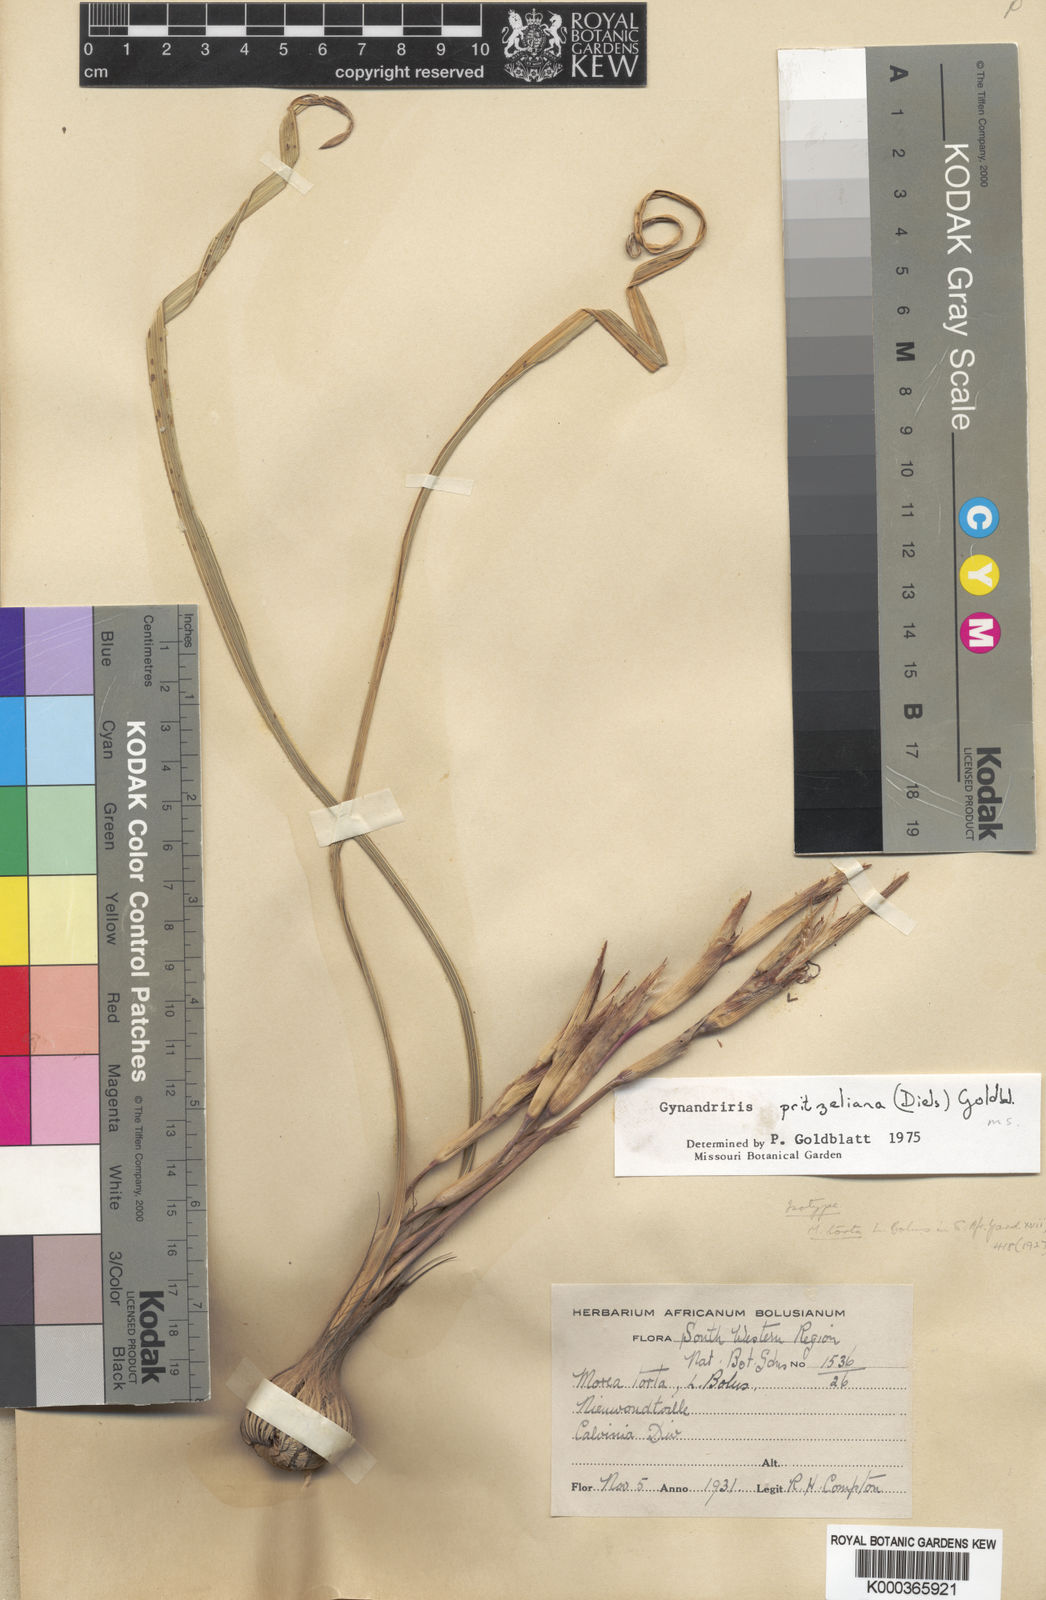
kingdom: Plantae
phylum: Tracheophyta
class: Liliopsida
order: Asparagales
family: Iridaceae
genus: Moraea
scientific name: Moraea pritzeliana
